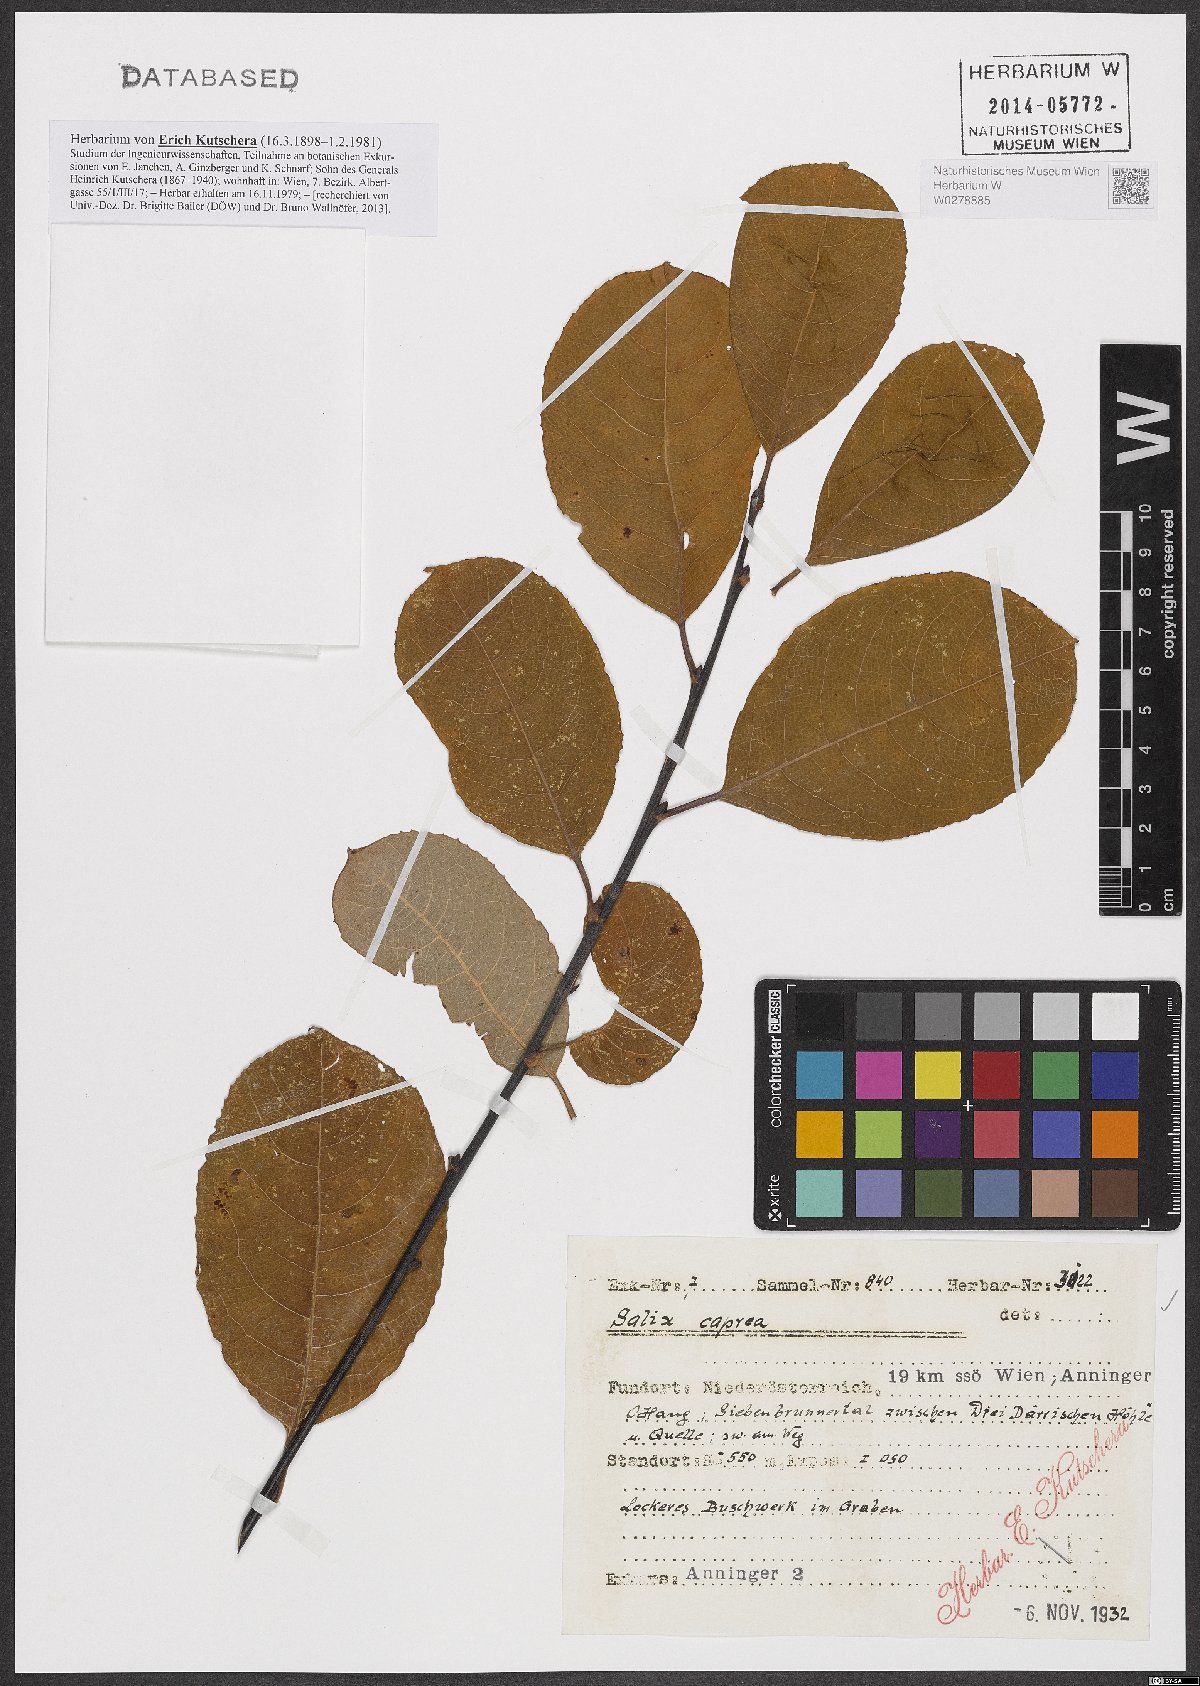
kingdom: Plantae
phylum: Tracheophyta
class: Magnoliopsida
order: Malpighiales
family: Salicaceae
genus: Salix
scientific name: Salix caprea
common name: Goat willow
